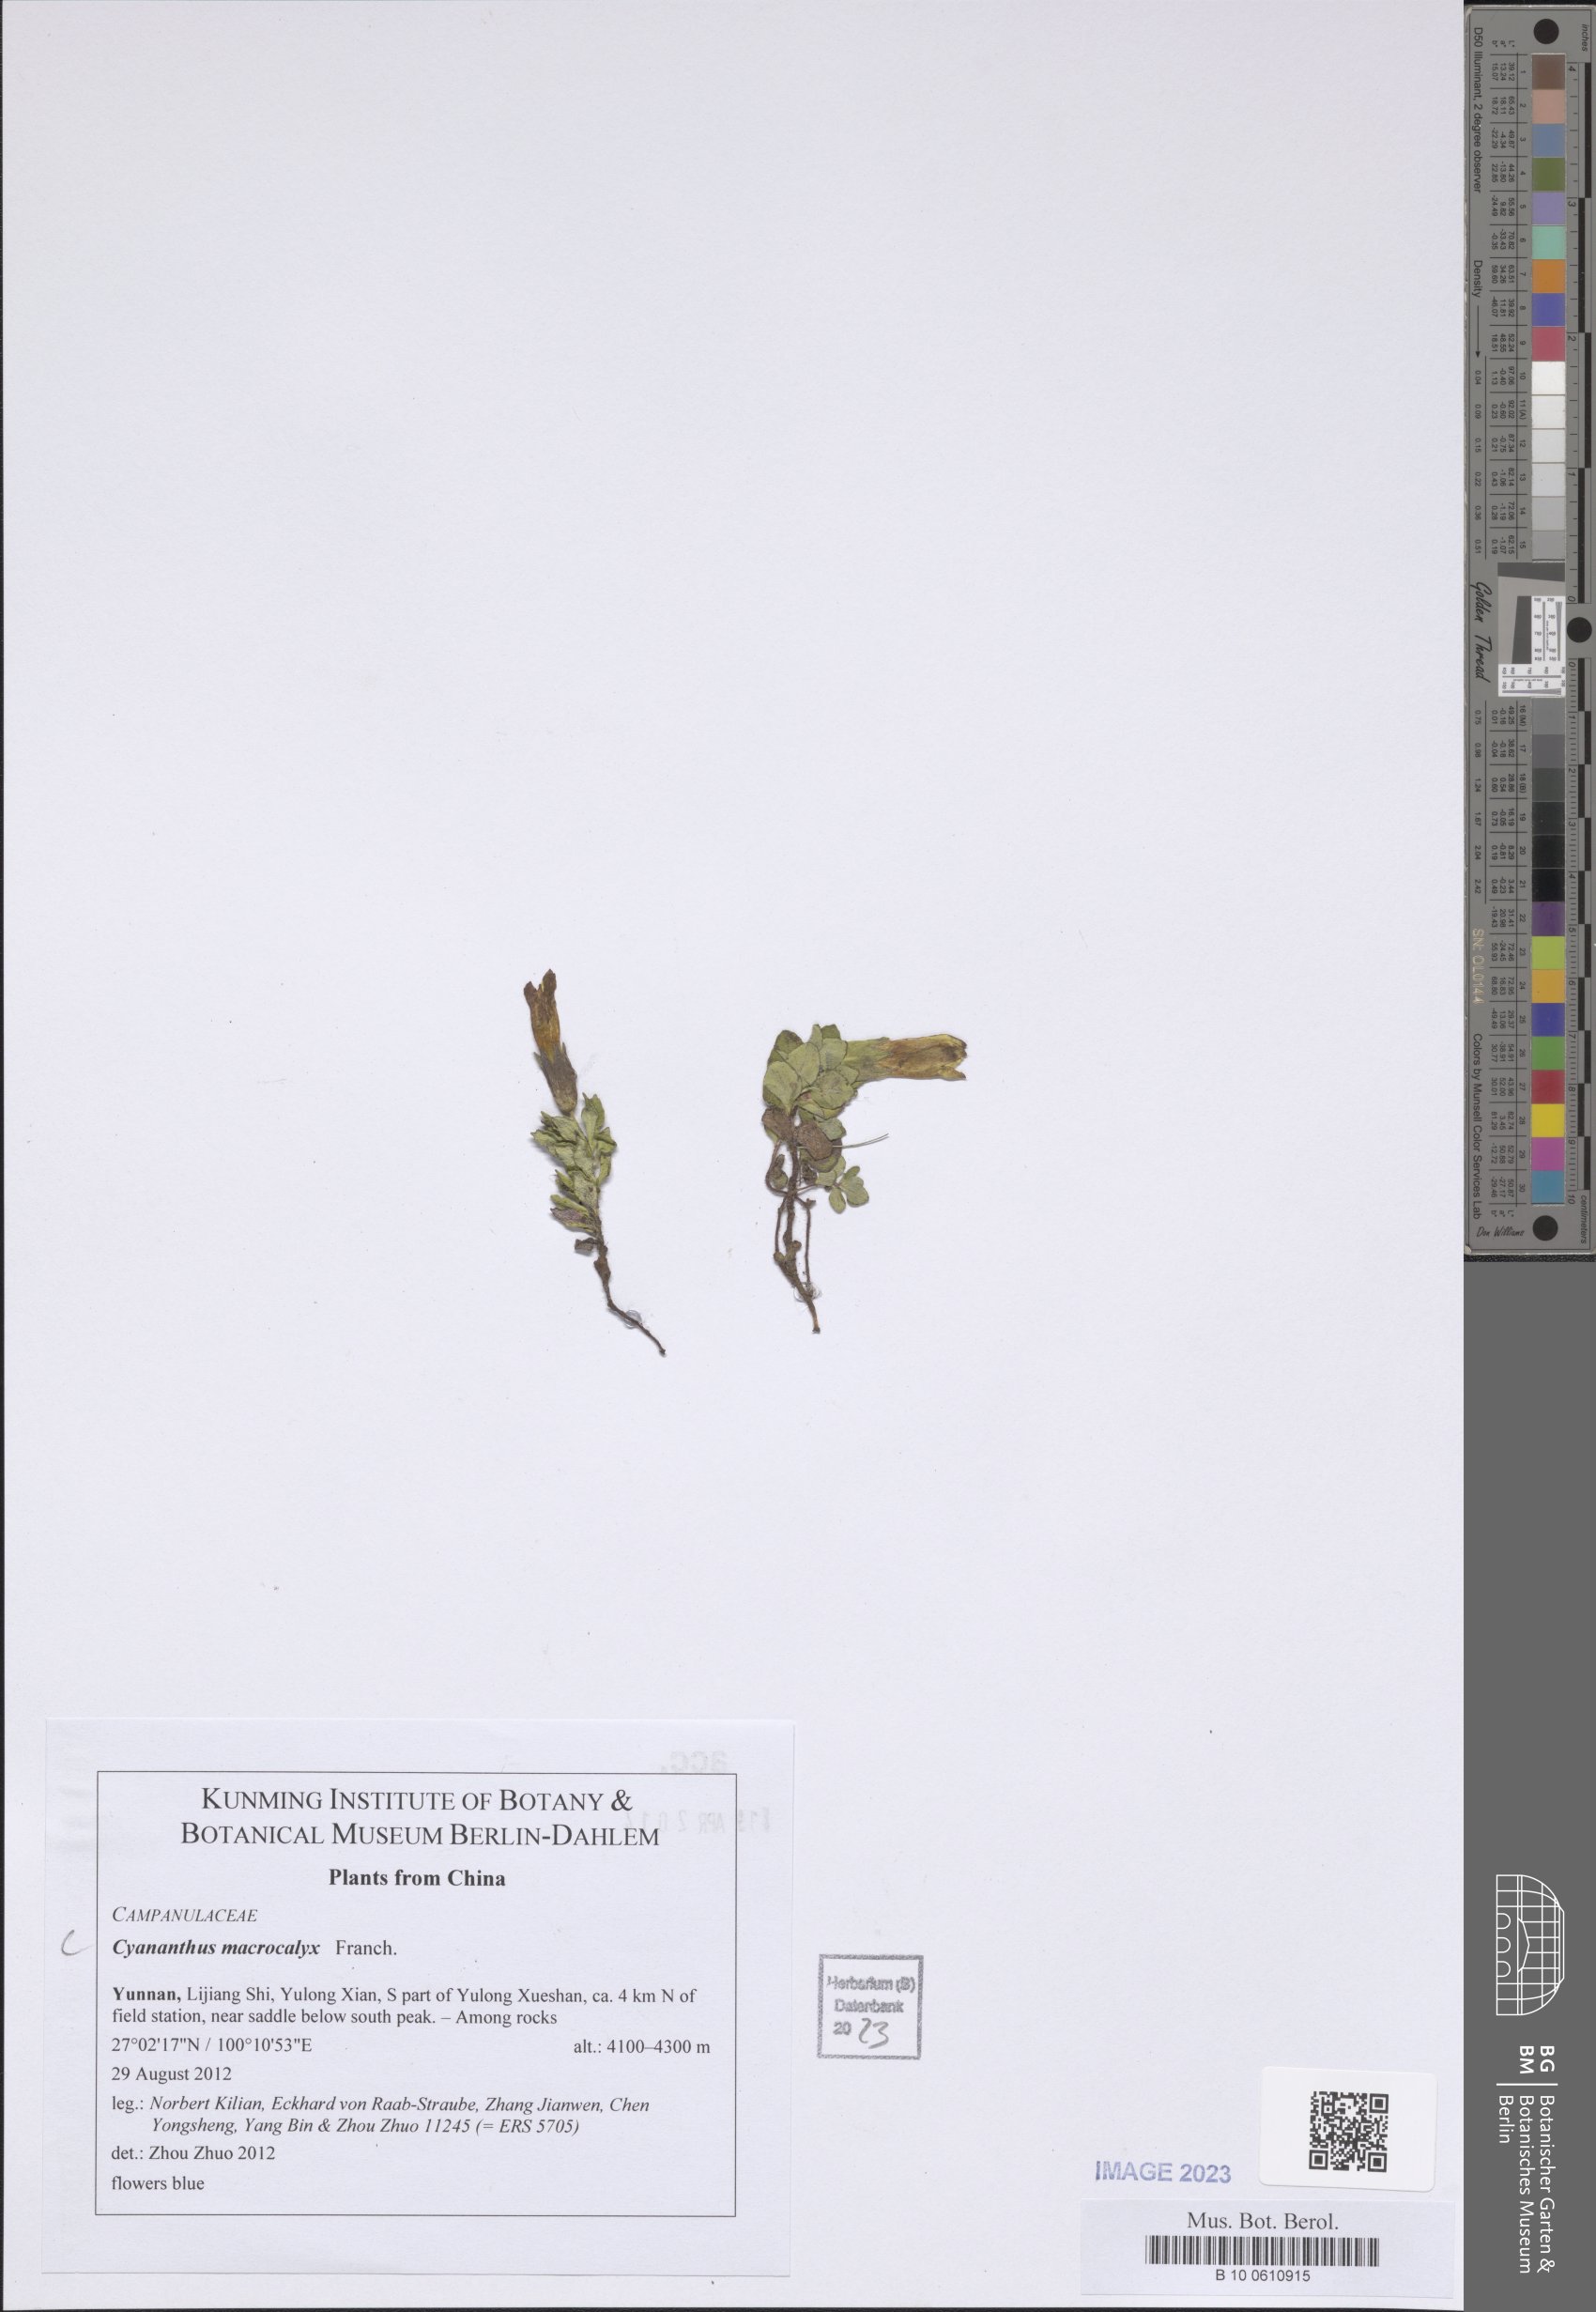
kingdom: Plantae
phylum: Tracheophyta
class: Magnoliopsida
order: Asterales
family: Campanulaceae
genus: Cyananthus
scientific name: Cyananthus macrocalyx
